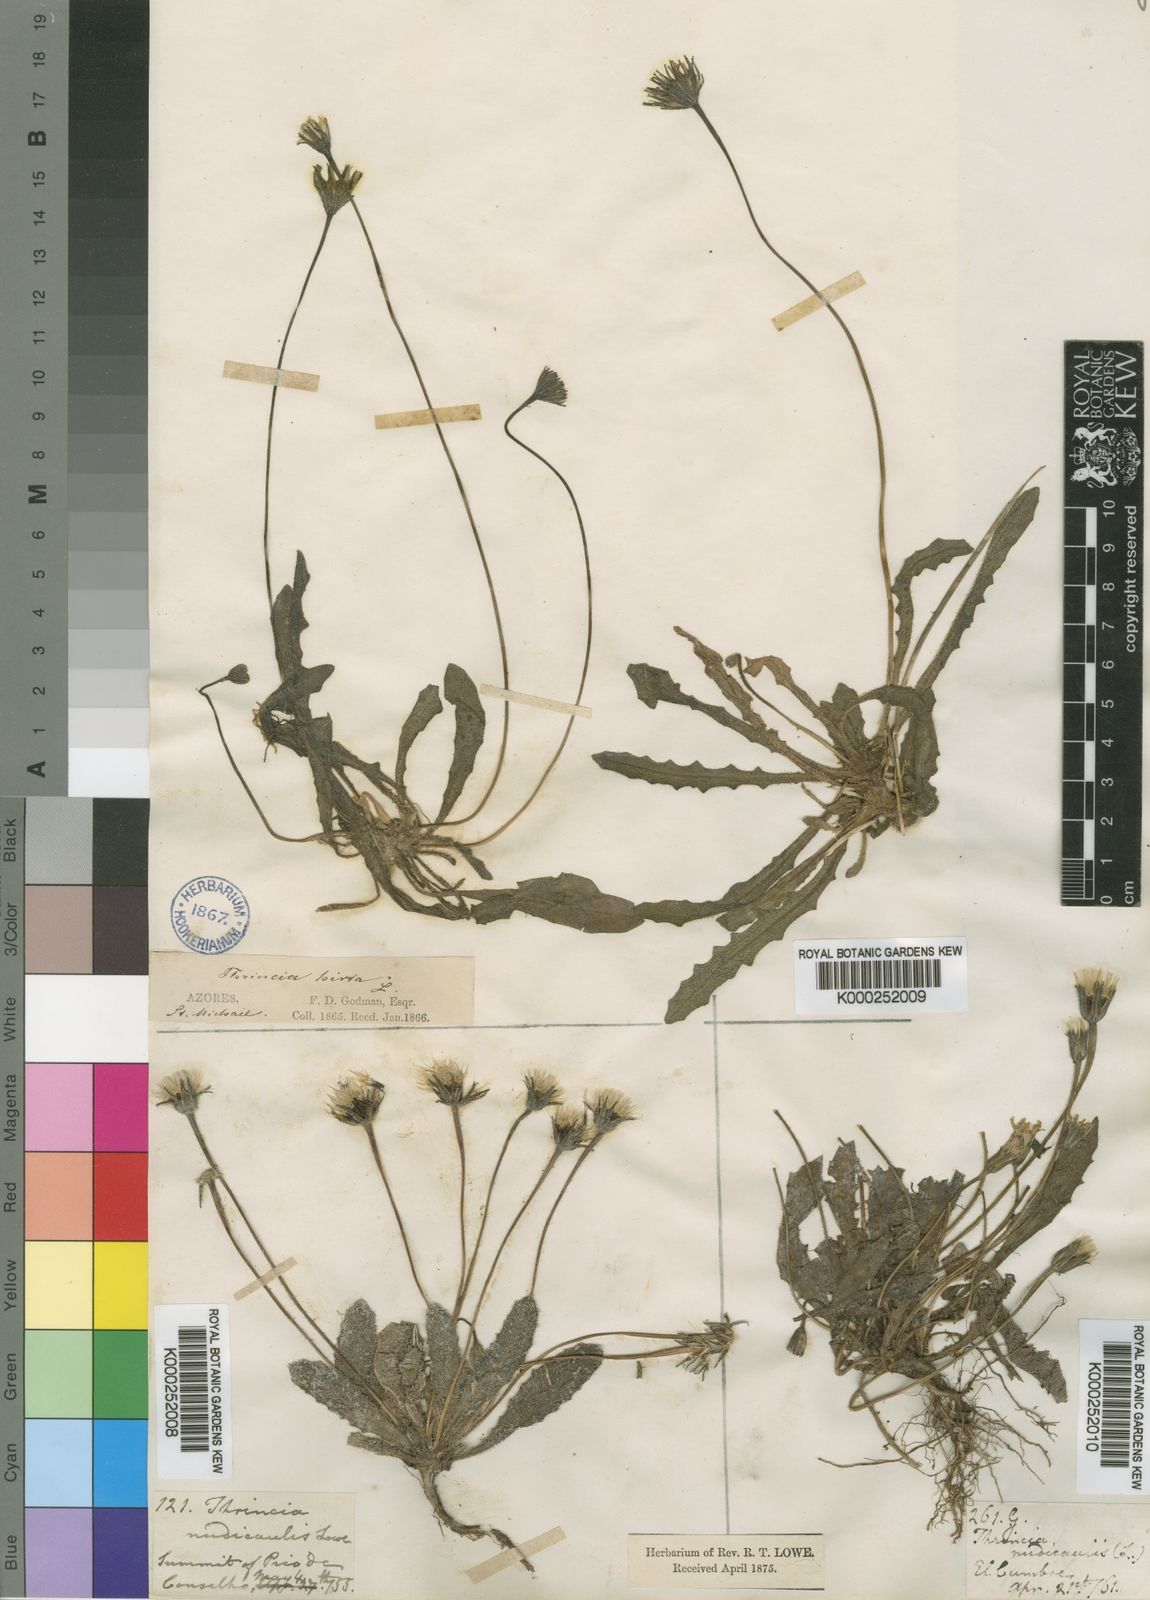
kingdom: Plantae
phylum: Tracheophyta
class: Magnoliopsida
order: Asterales
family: Asteraceae
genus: Leontodon
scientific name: Leontodon
